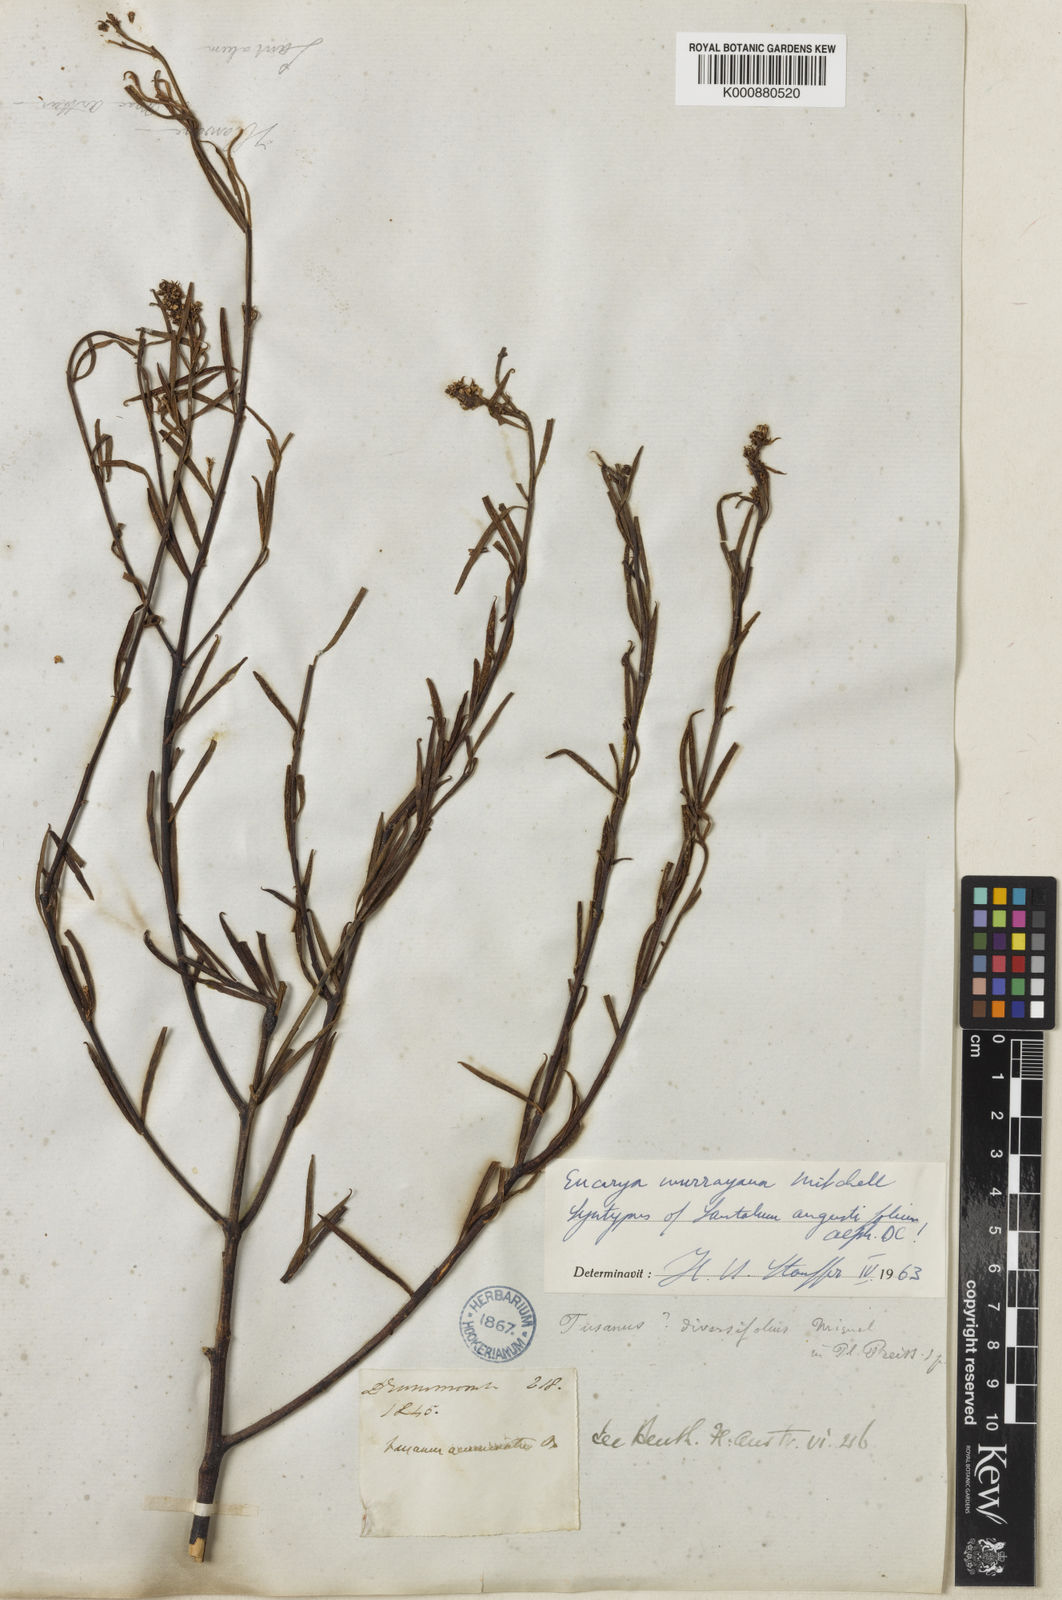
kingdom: Plantae
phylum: Tracheophyta
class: Magnoliopsida
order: Santalales
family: Santalaceae
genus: Santalum
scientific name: Santalum murrayanum
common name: Bitter quandong
